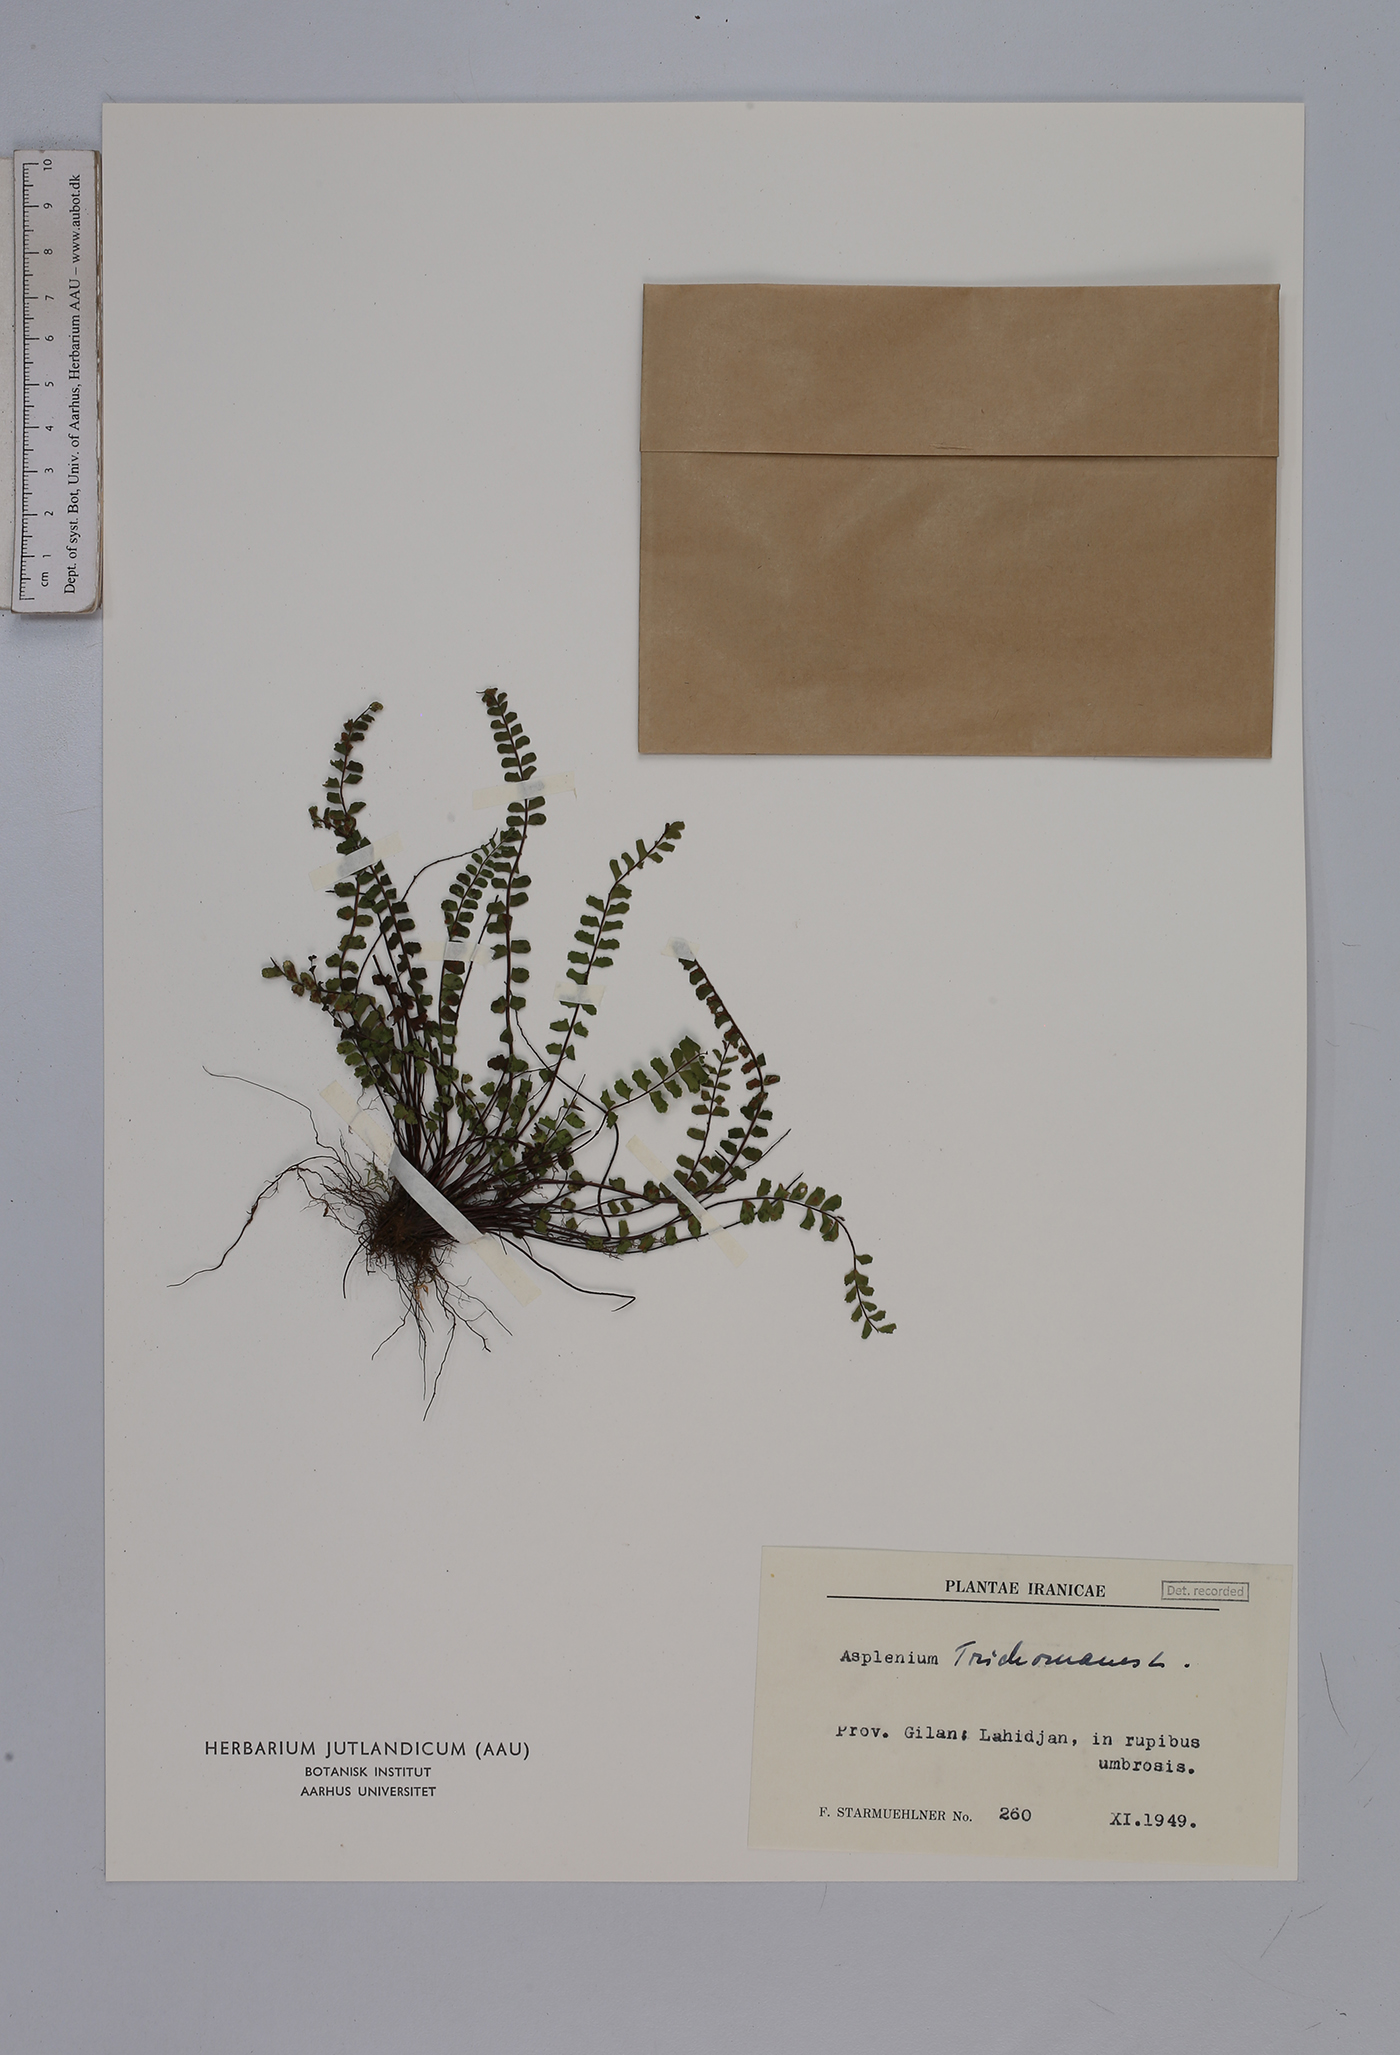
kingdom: Plantae
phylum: Tracheophyta
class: Polypodiopsida
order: Polypodiales
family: Aspleniaceae
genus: Asplenium
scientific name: Asplenium trichomanes
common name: Maidenhair spleenwort
